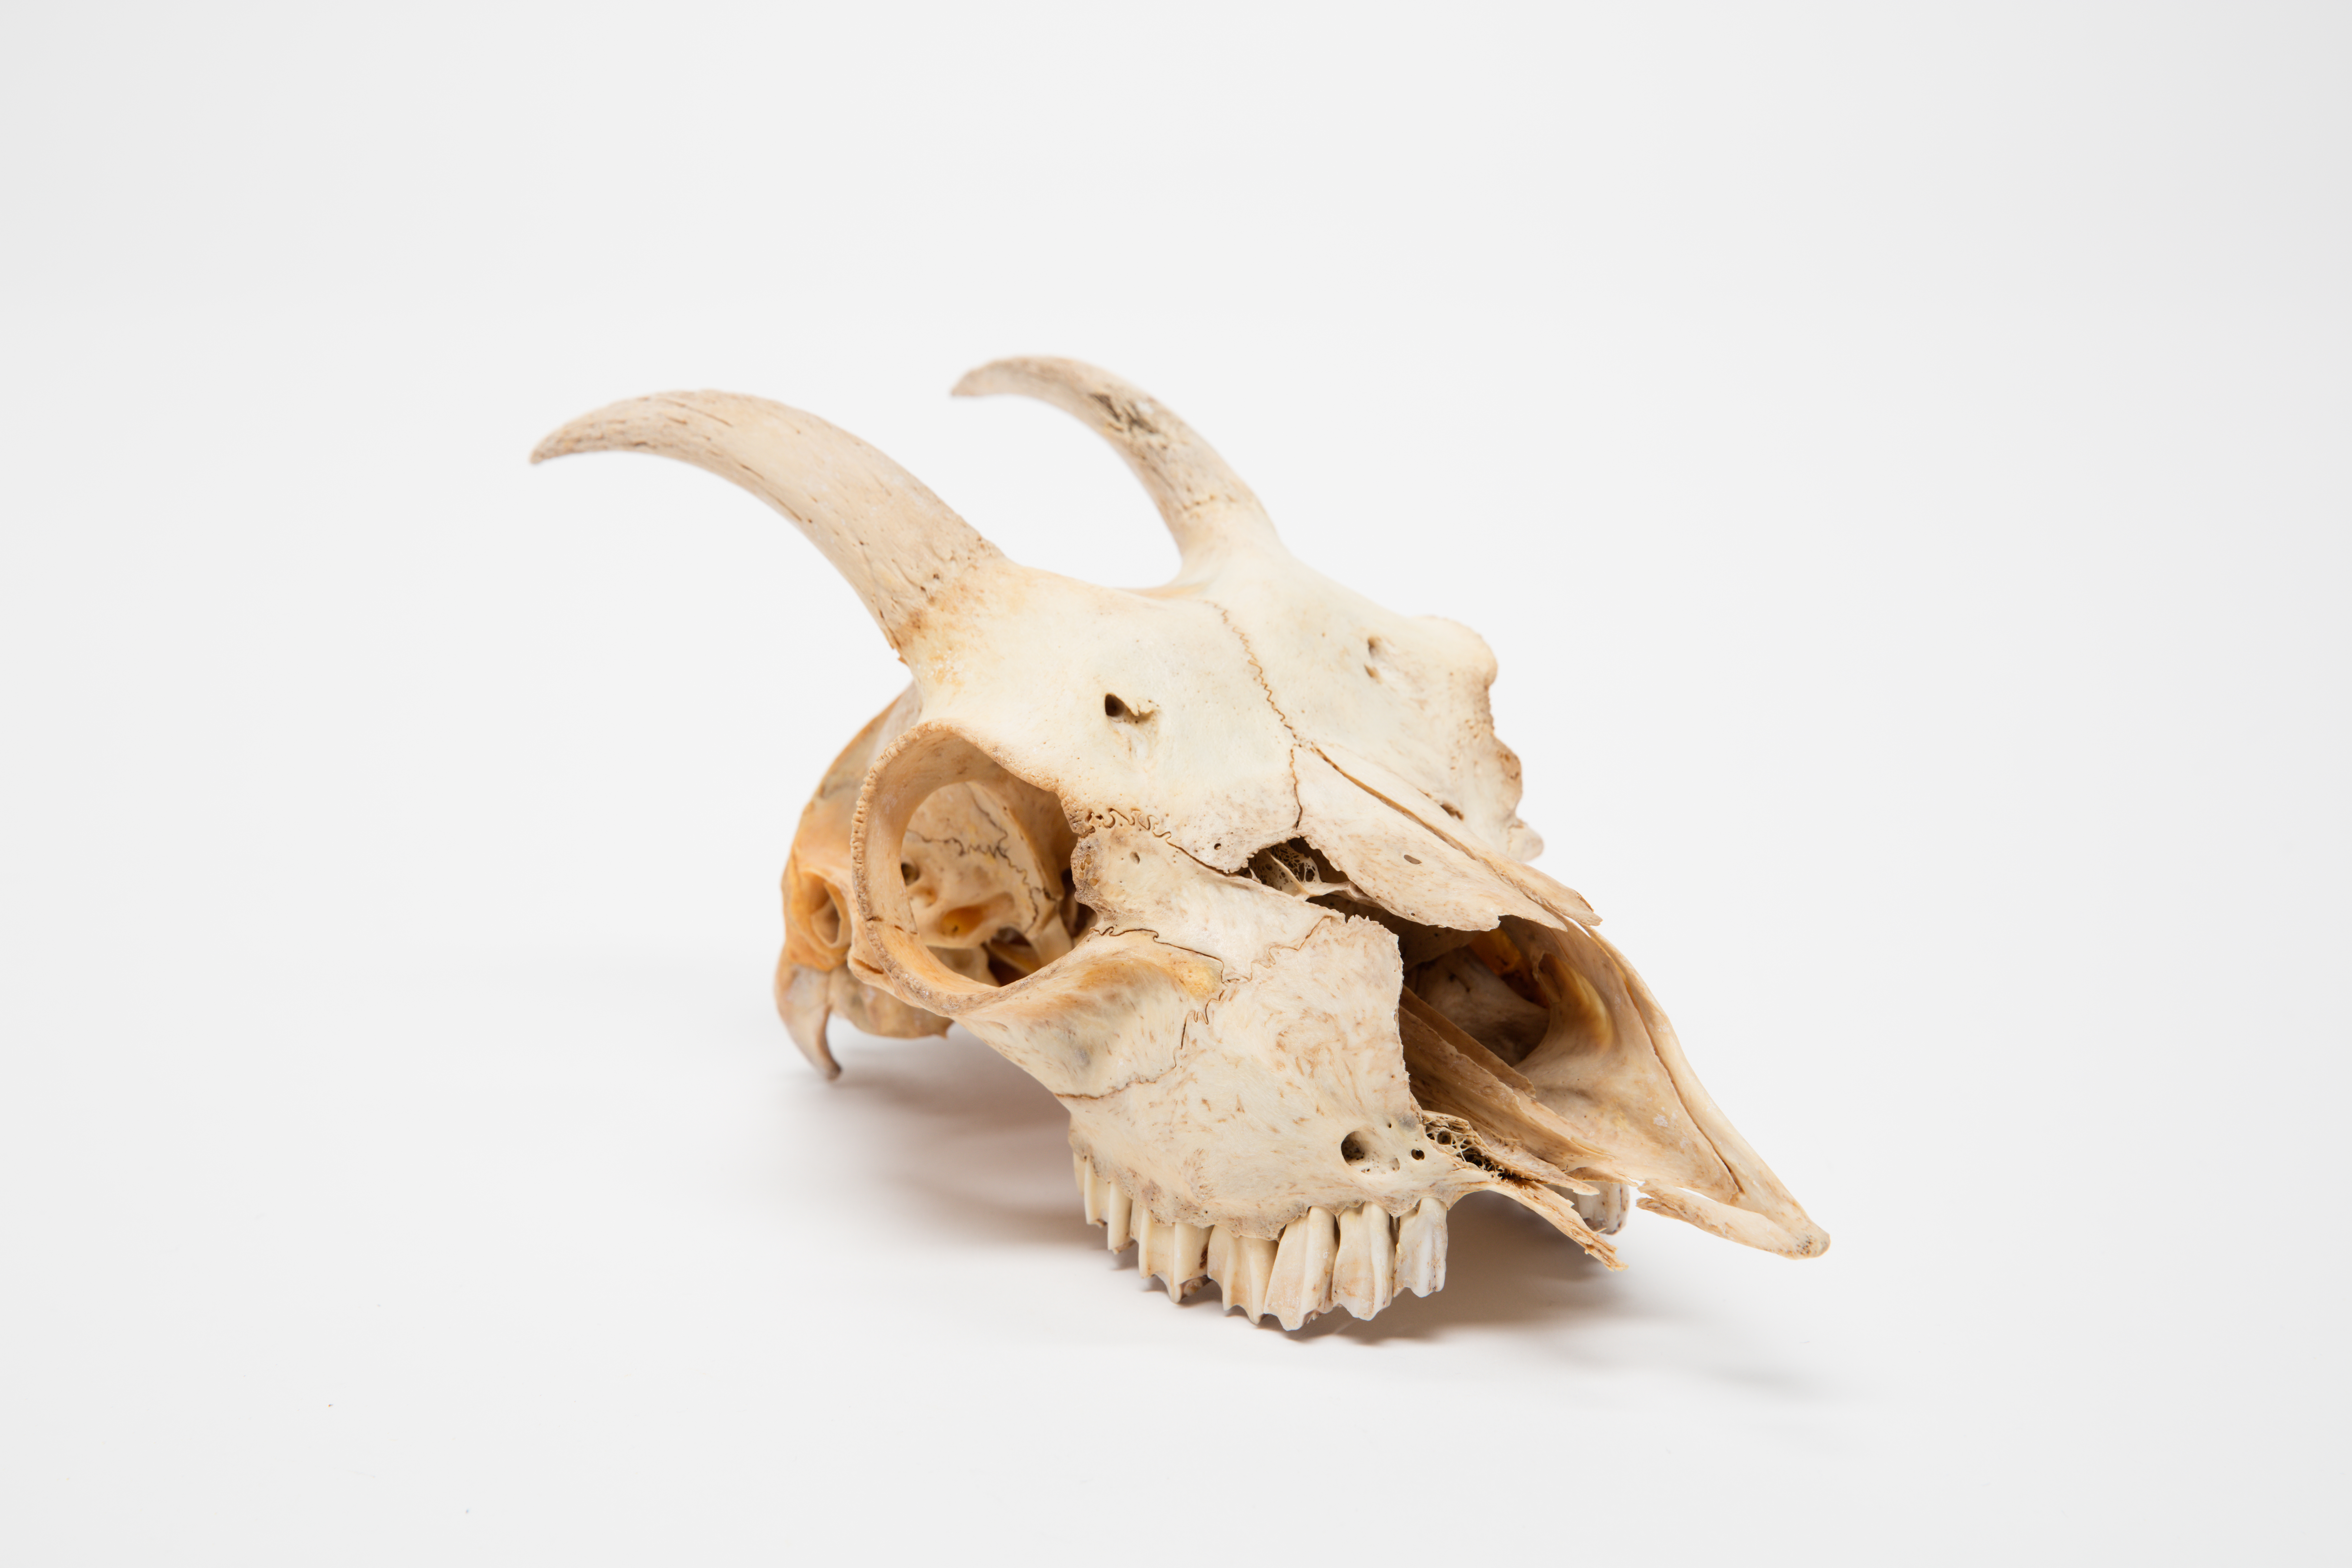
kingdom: Animalia
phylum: Chordata
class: Mammalia
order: Artiodactyla
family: Bovidae
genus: Capra
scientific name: Capra hircus
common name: Domestic goat
